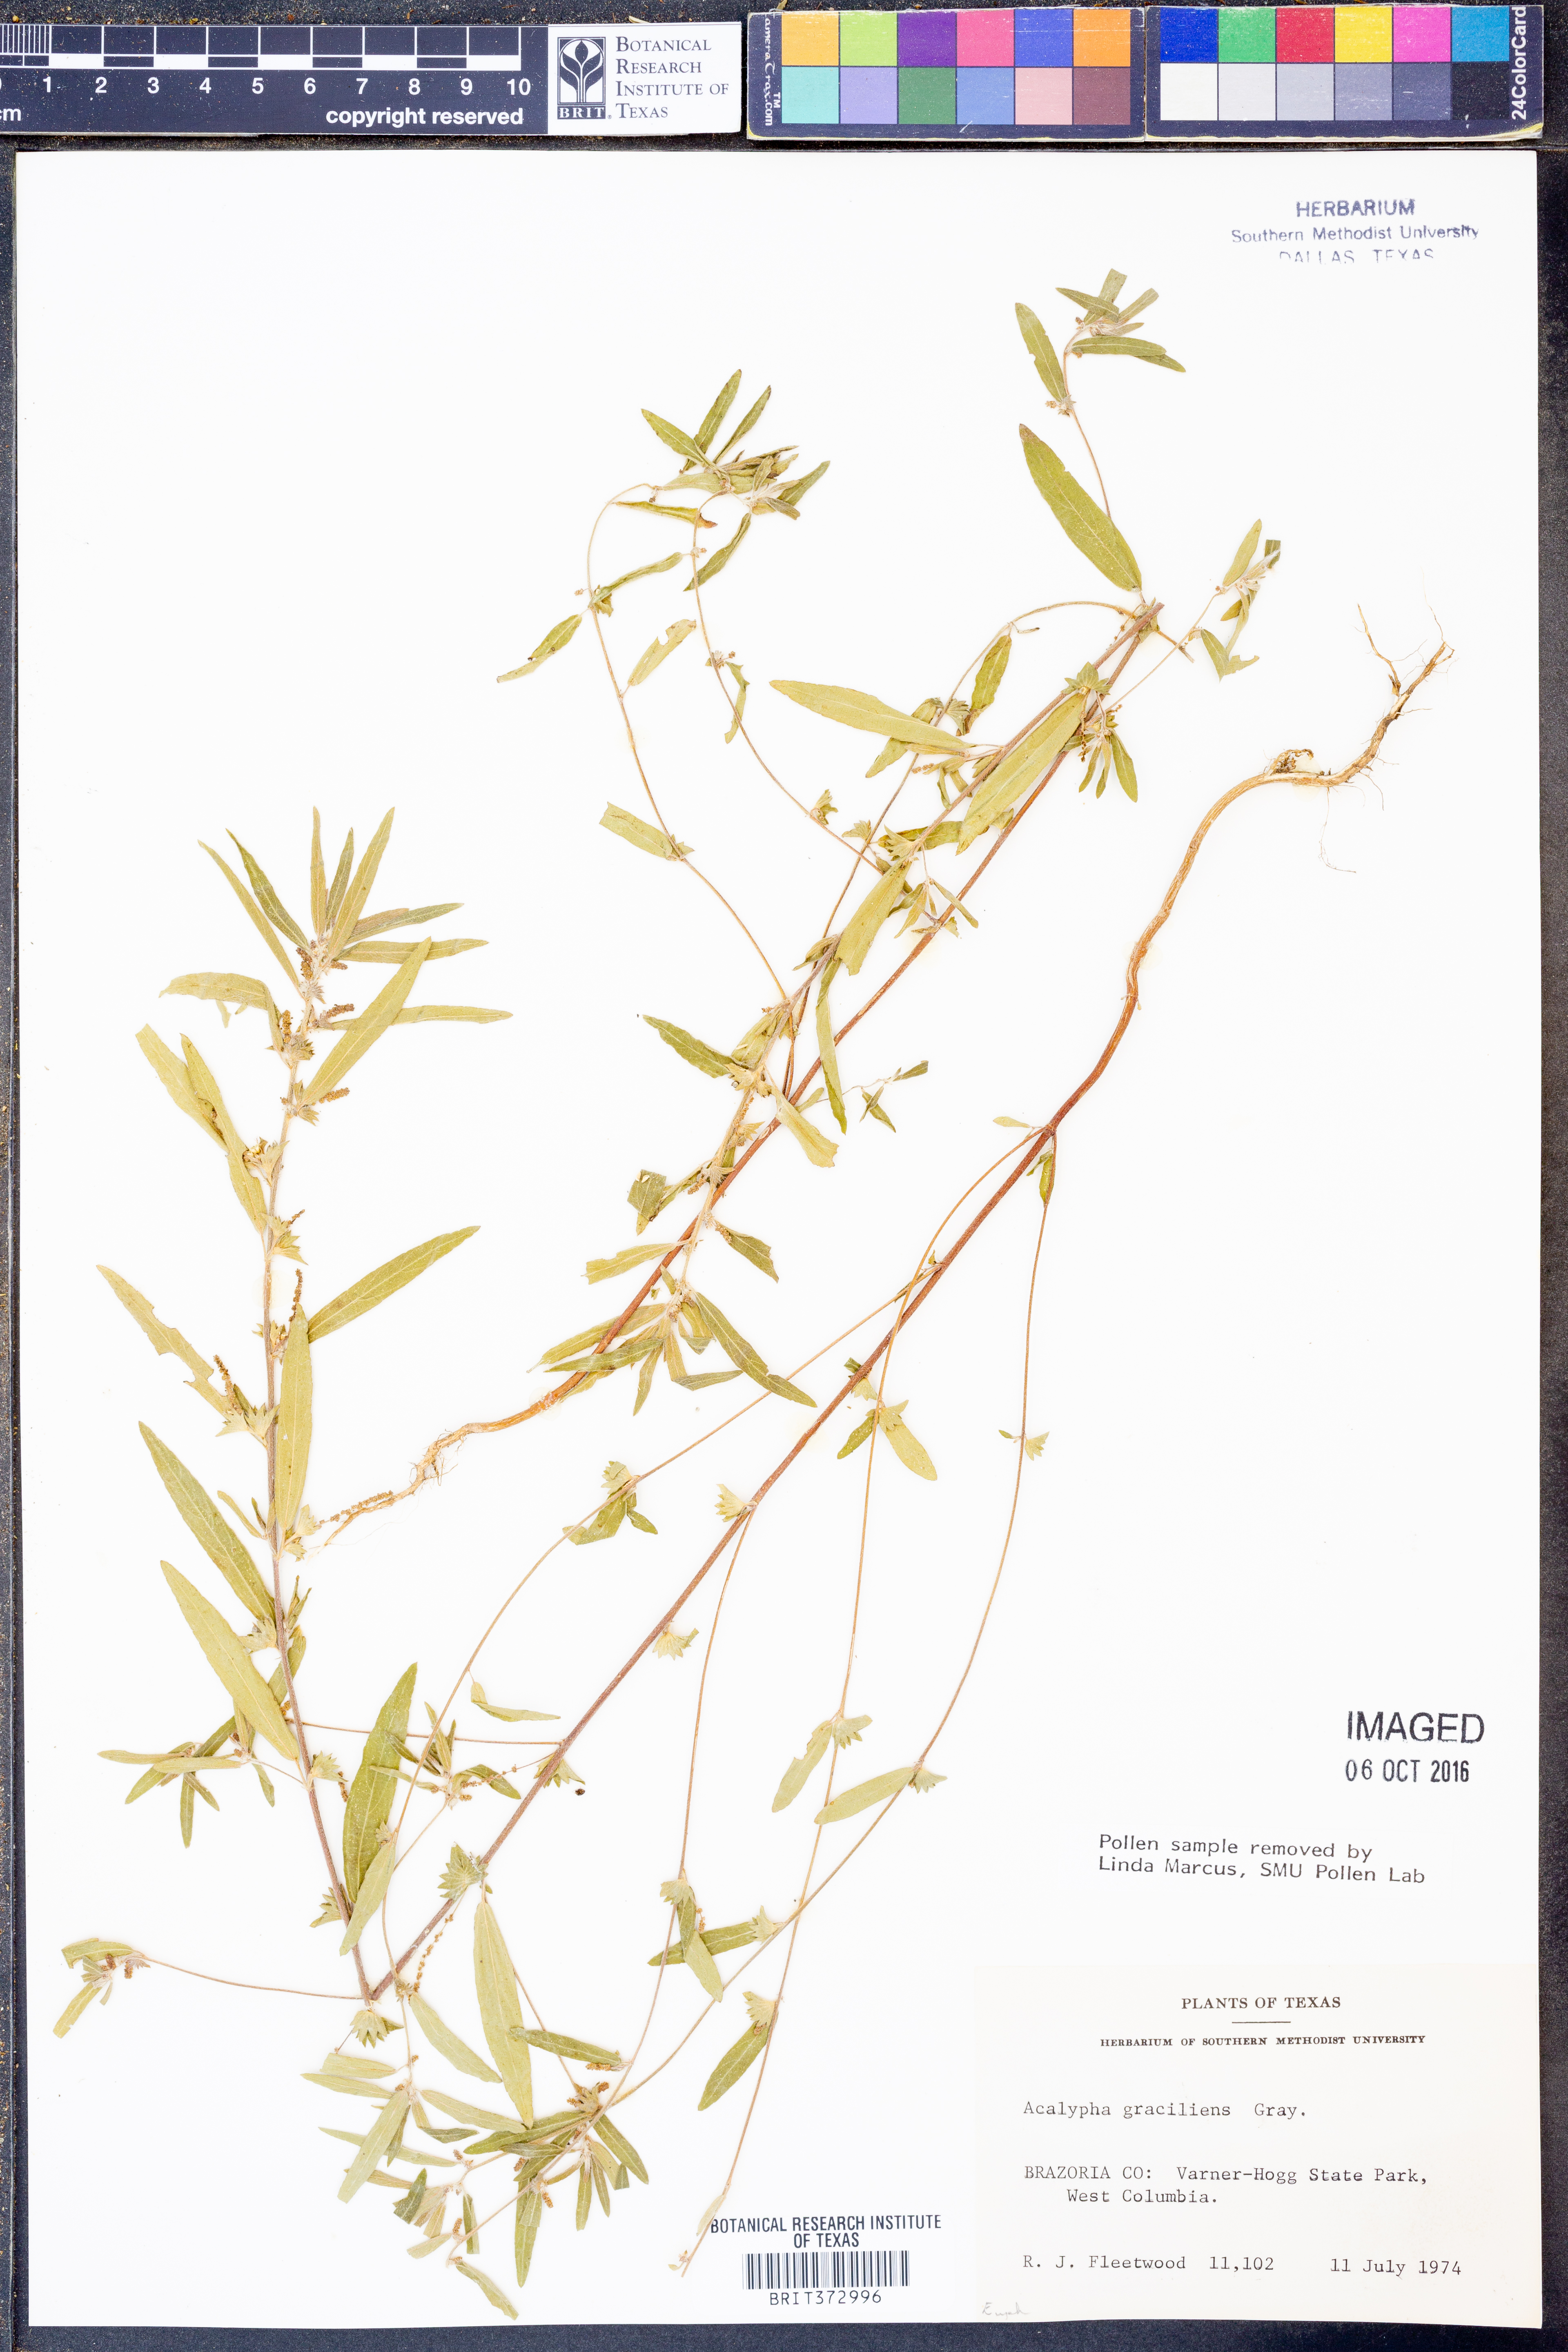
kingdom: Plantae
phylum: Tracheophyta
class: Magnoliopsida
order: Malpighiales
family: Euphorbiaceae
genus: Acalypha
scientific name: Acalypha gracilens
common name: Slender three-seeded mercury
